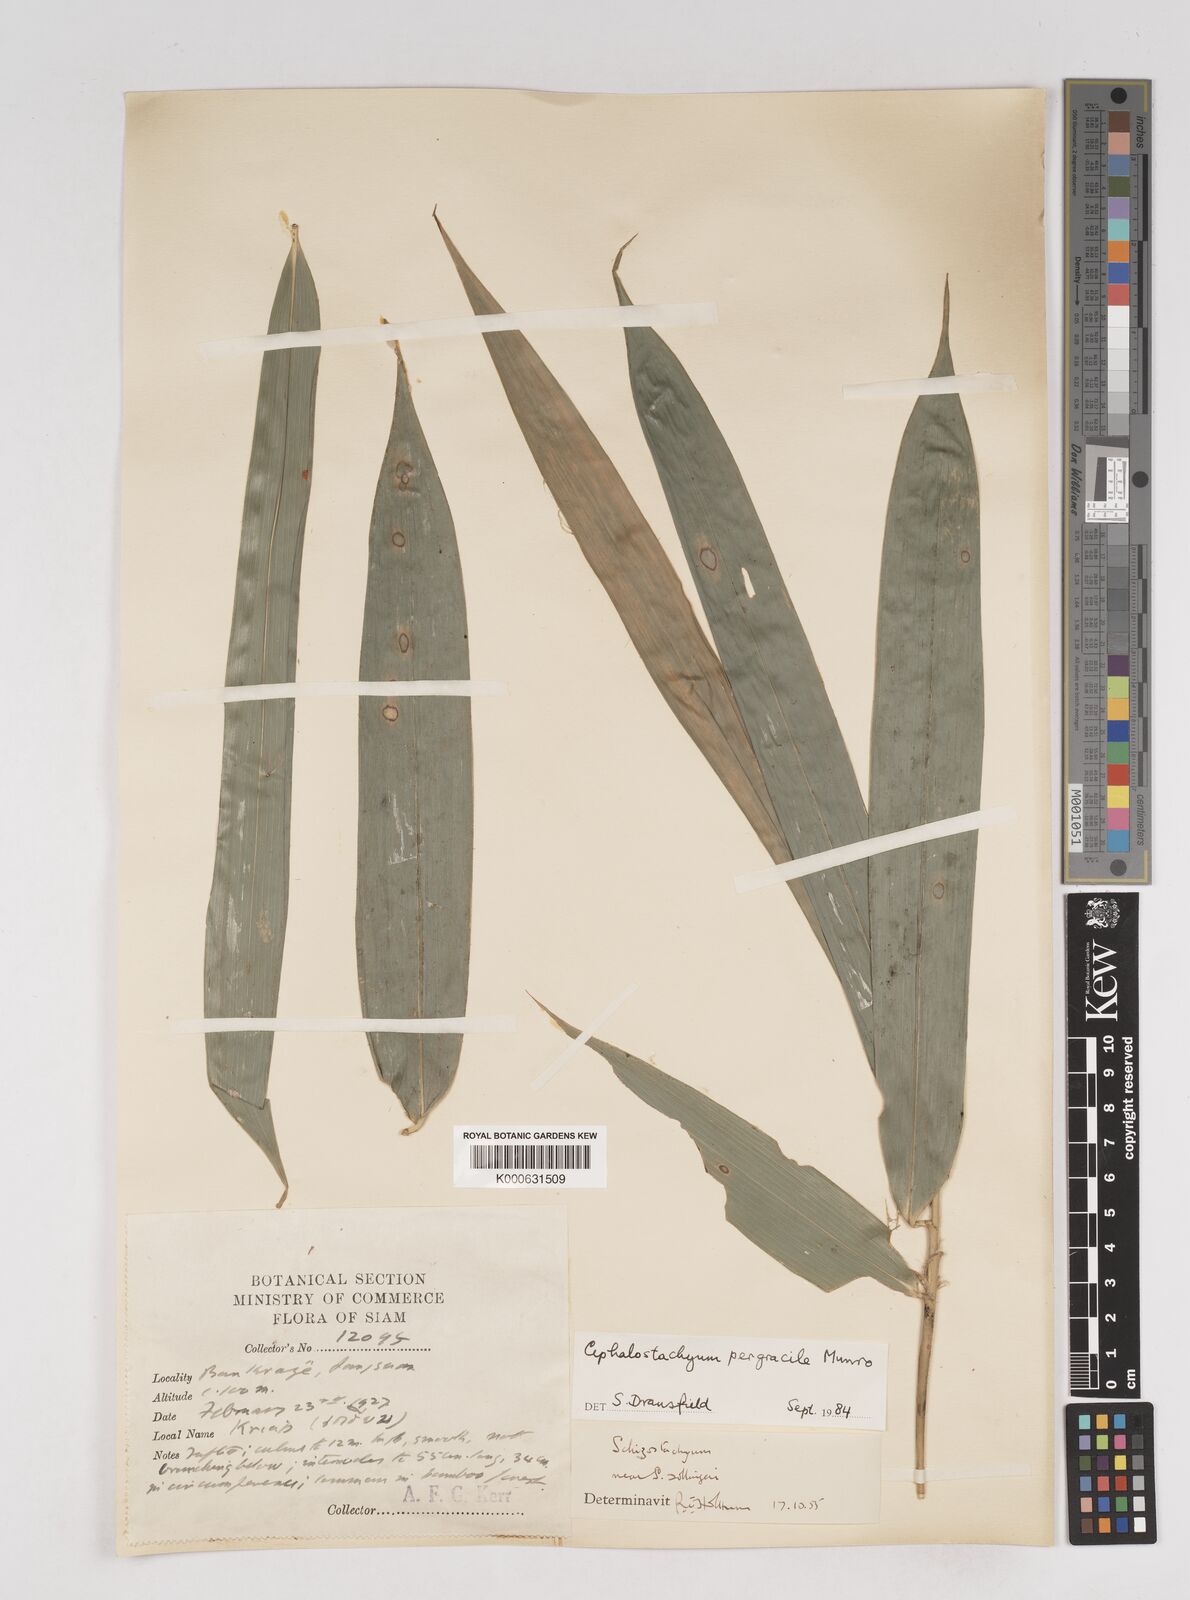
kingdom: Plantae
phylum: Tracheophyta
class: Liliopsida
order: Poales
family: Poaceae
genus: Schizostachyum
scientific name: Schizostachyum pergracile
